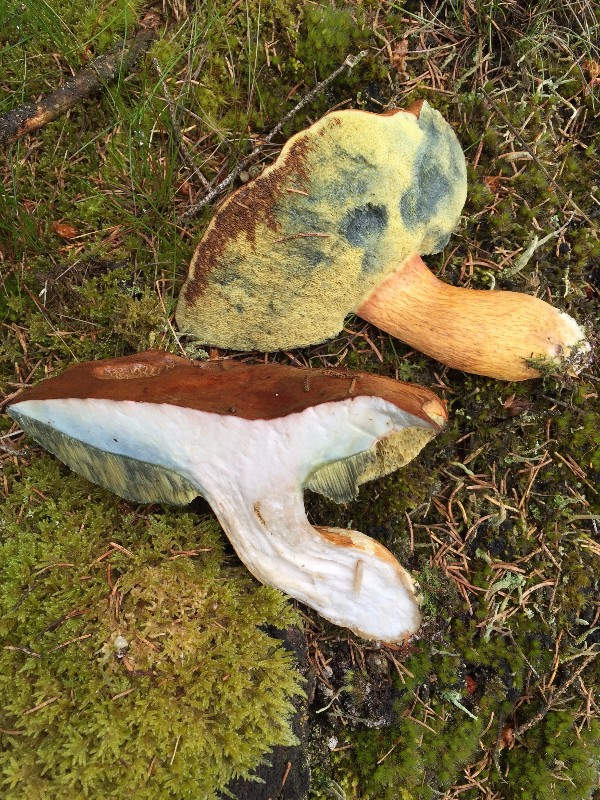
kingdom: Fungi
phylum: Basidiomycota
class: Agaricomycetes
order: Boletales
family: Boletaceae
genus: Imleria
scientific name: Imleria badia
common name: brunstokket rørhat
